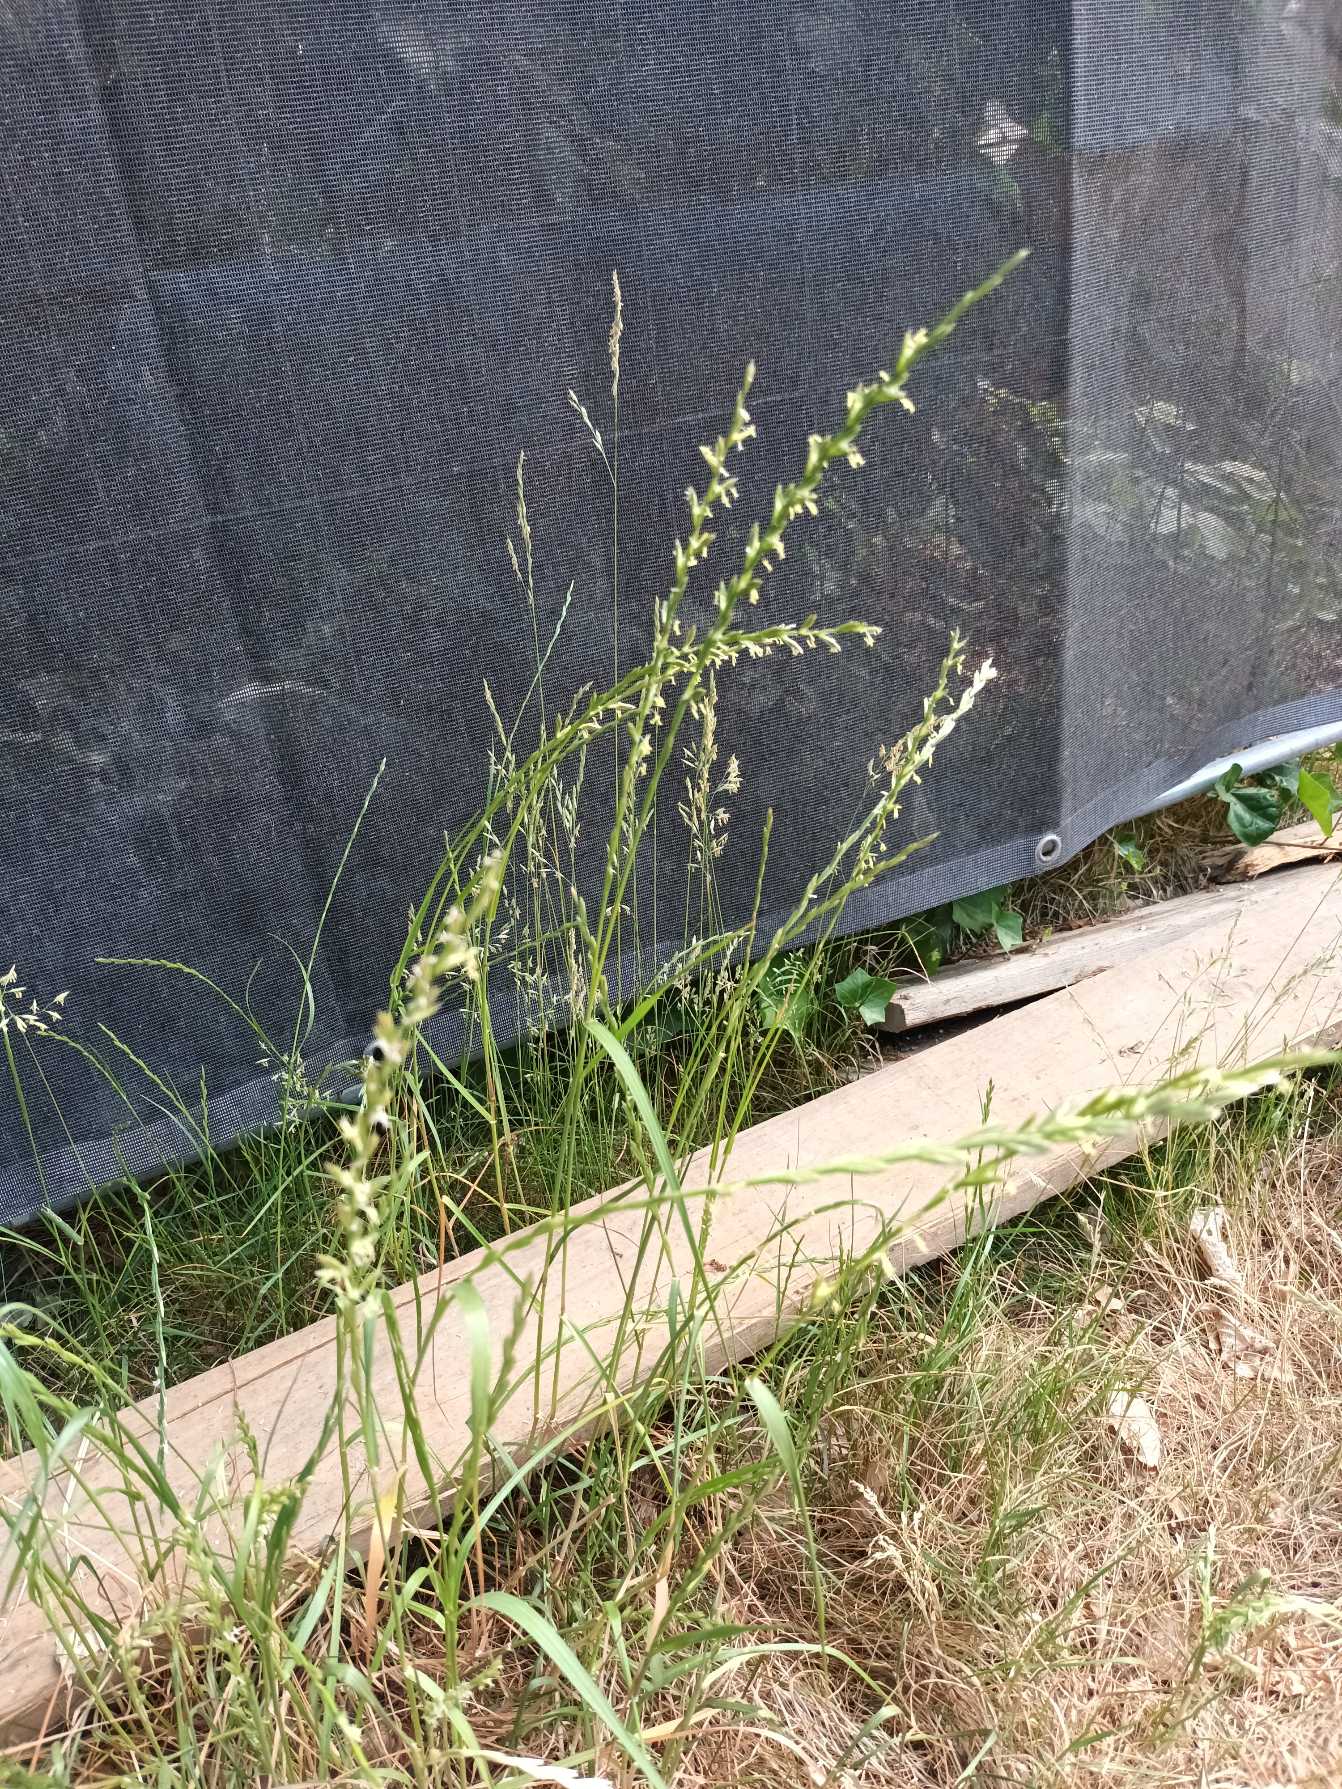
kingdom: Plantae
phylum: Tracheophyta
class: Liliopsida
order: Poales
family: Poaceae
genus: Lolium
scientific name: Lolium perenne
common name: Almindelig rajgræs
